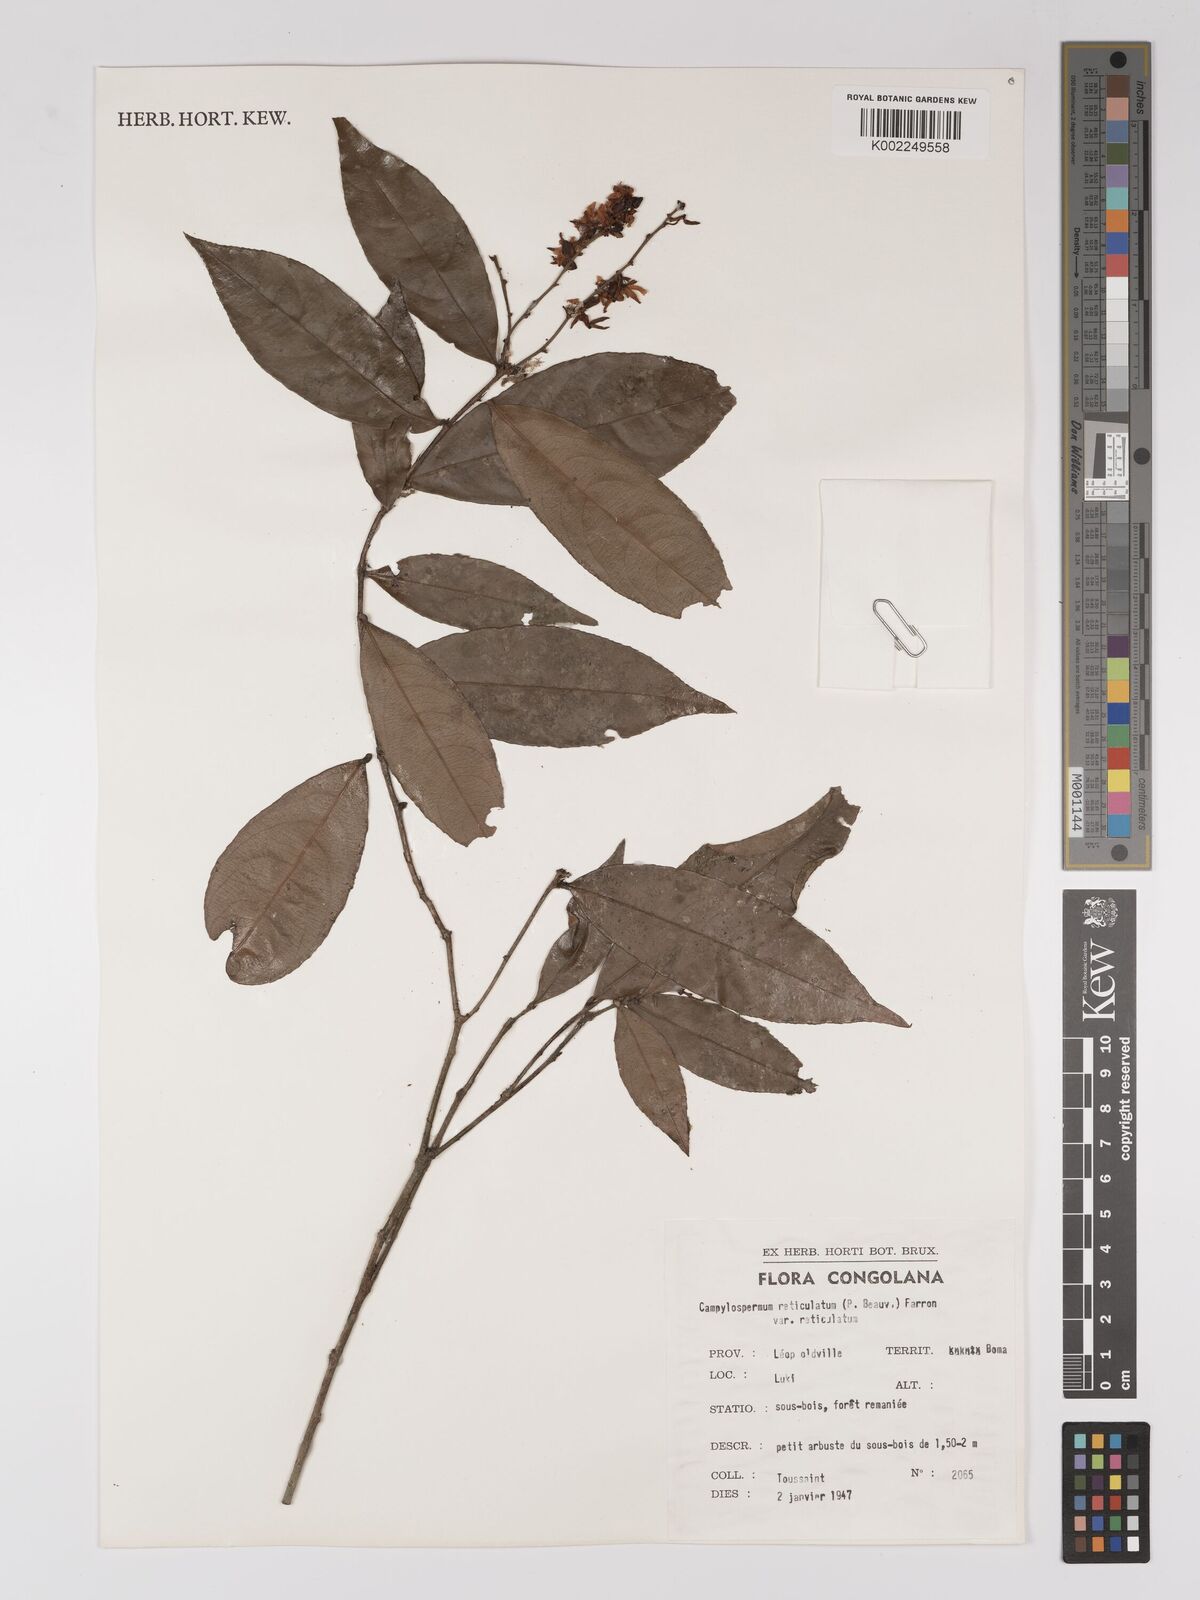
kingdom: Plantae
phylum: Tracheophyta
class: Magnoliopsida
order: Malpighiales
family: Ochnaceae
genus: Campylospermum
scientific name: Campylospermum reticulatum
